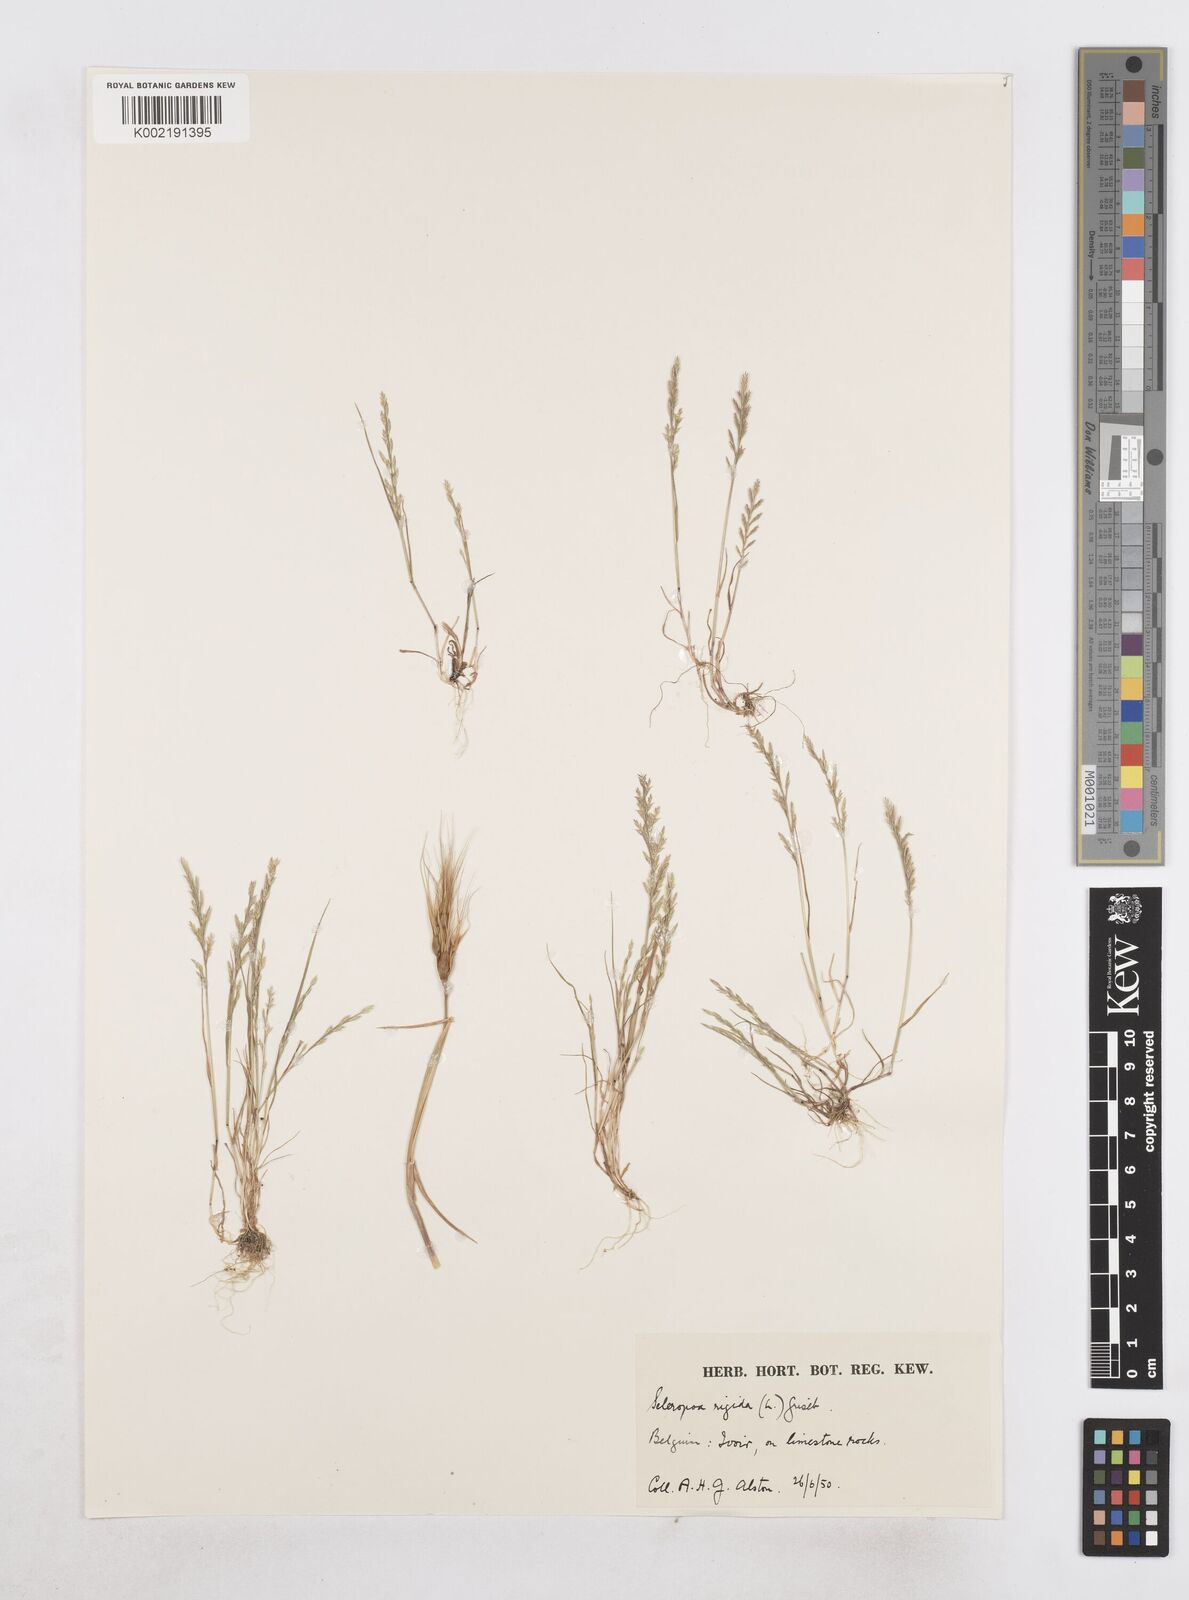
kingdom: Plantae
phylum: Tracheophyta
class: Liliopsida
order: Poales
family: Poaceae
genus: Catapodium
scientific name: Catapodium rigidum
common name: Fern-grass
